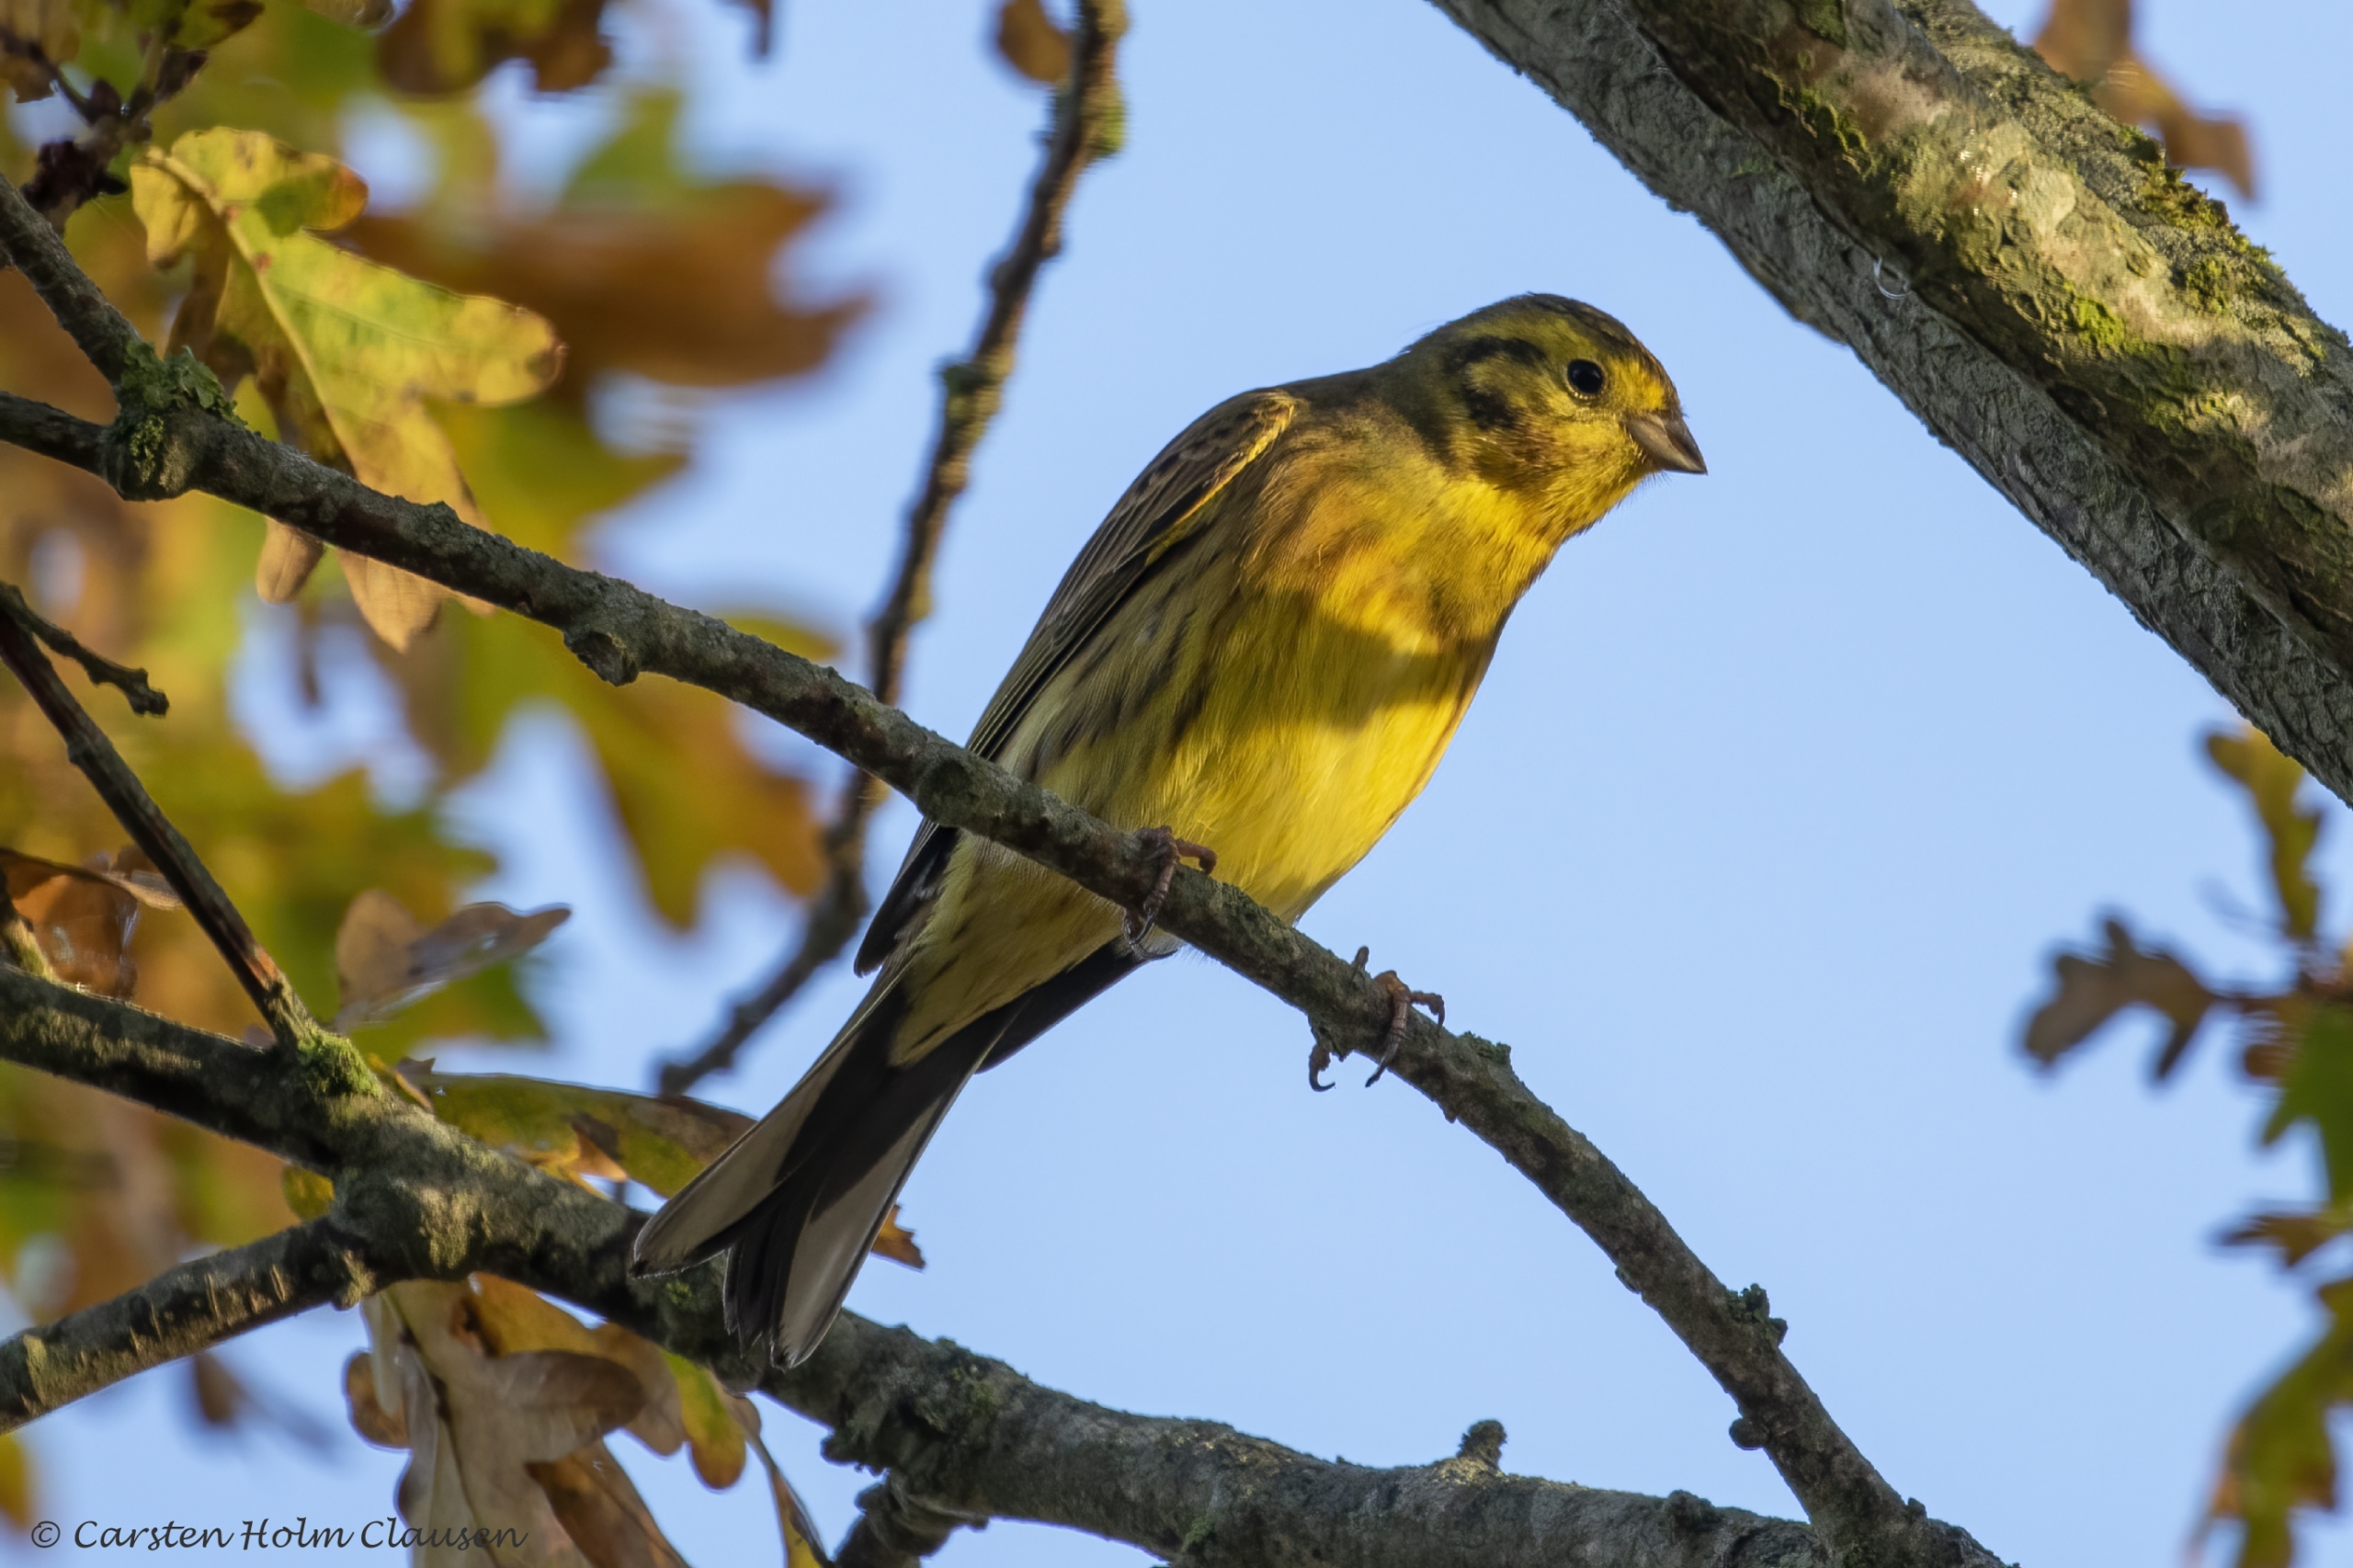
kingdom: Animalia
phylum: Chordata
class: Aves
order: Passeriformes
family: Emberizidae
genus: Emberiza
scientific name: Emberiza citrinella
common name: Gulspurv
